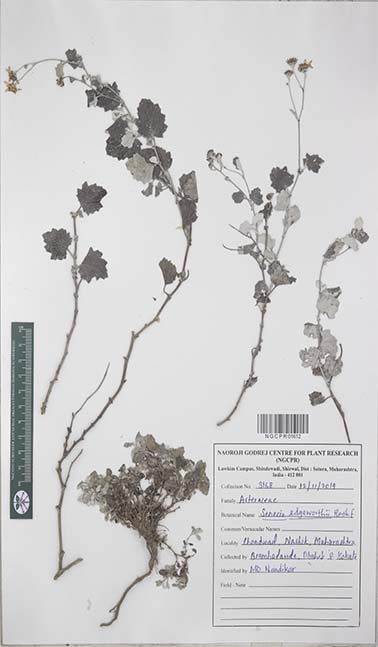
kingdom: Plantae
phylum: Tracheophyta
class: Magnoliopsida
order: Asterales
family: Asteraceae
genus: Senecio
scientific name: Senecio edgeworthii
